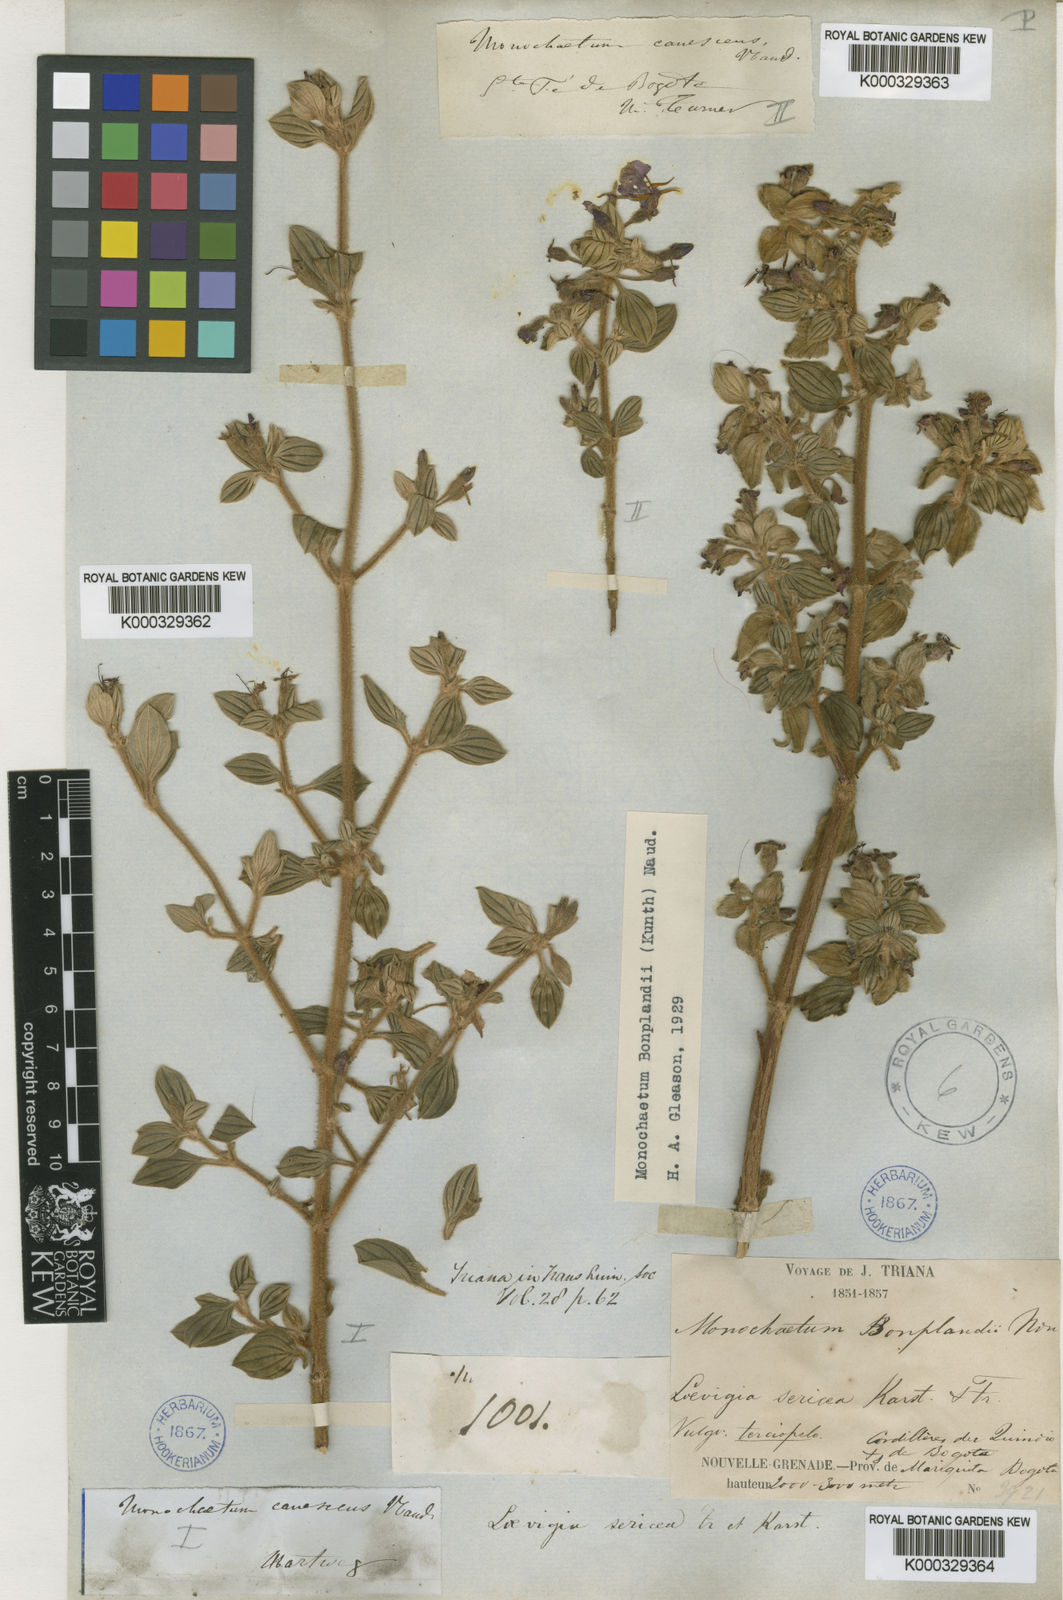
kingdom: Plantae
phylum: Tracheophyta
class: Magnoliopsida
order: Myrtales
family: Melastomataceae
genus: Monochaetum
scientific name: Monochaetum bonplandii
